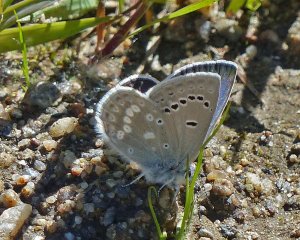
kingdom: Animalia
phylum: Arthropoda
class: Insecta
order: Lepidoptera
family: Lycaenidae
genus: Icaricia
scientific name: Icaricia icarioides
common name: Boisduval's Blue
